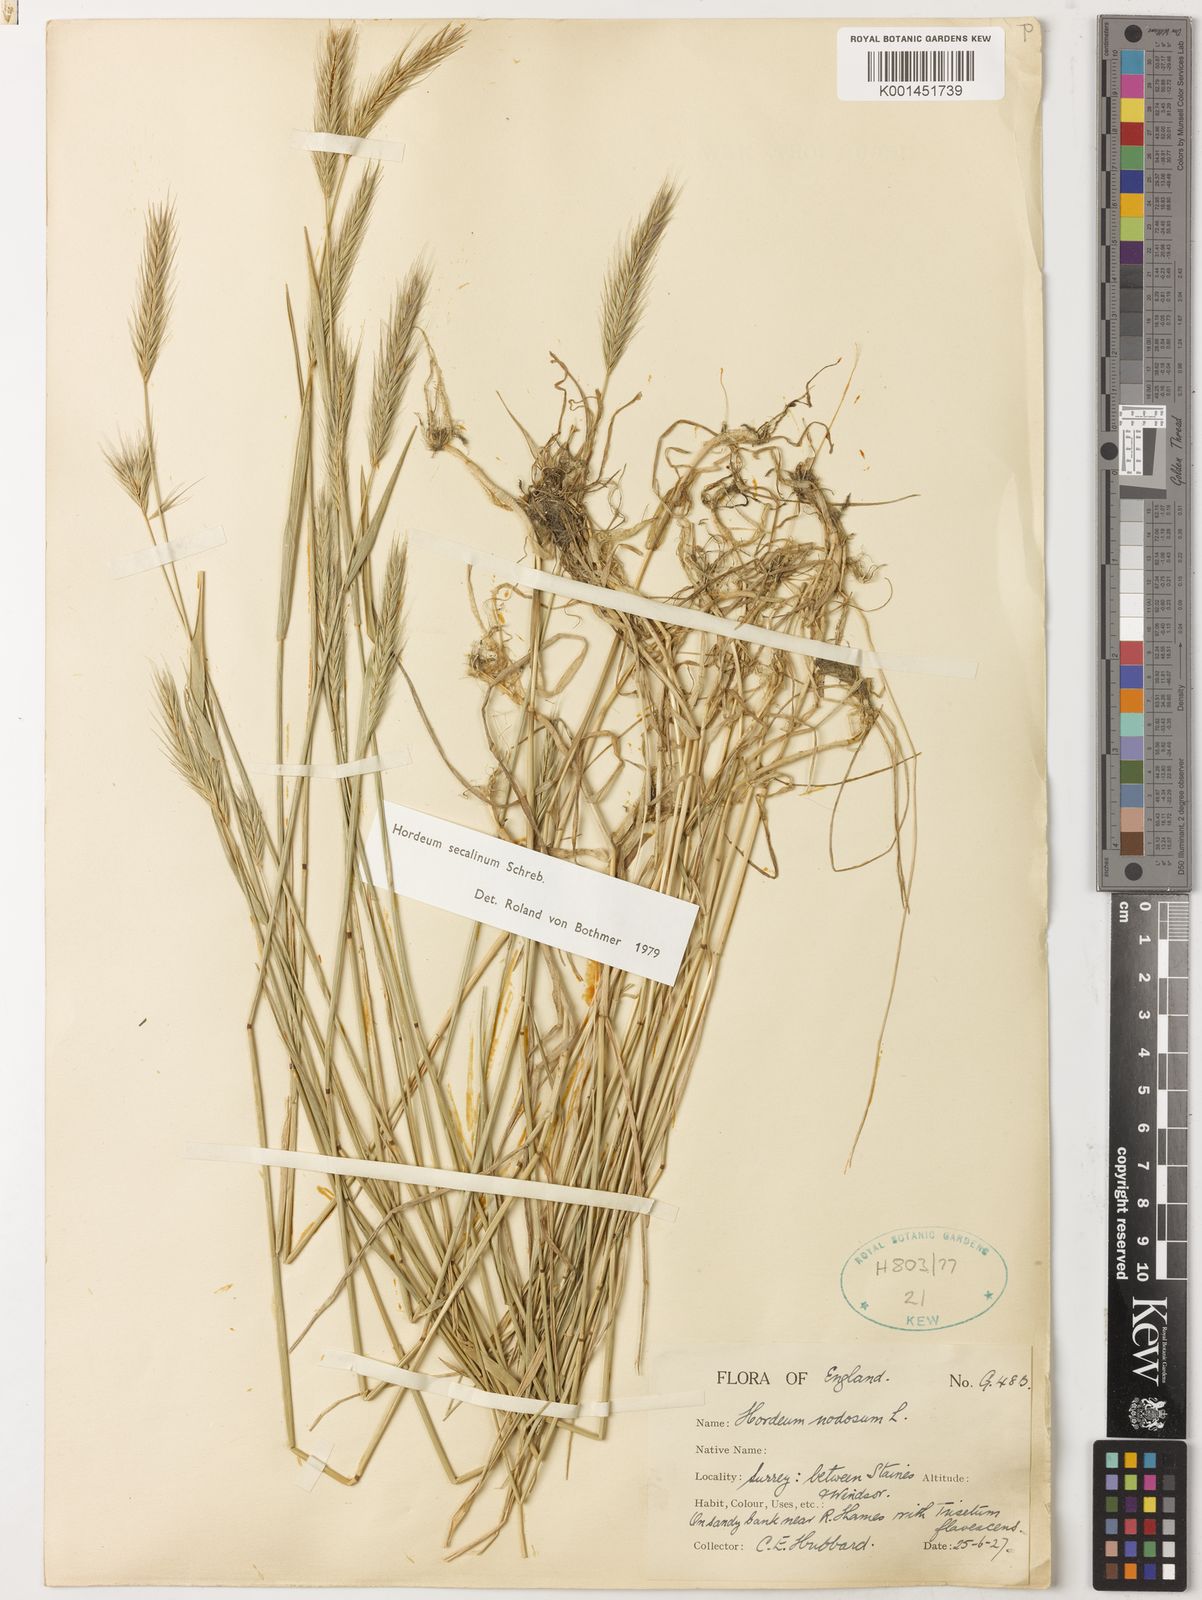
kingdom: Plantae
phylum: Tracheophyta
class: Liliopsida
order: Poales
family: Poaceae
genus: Hordeum
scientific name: Hordeum secalinum
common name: Meadow barley
